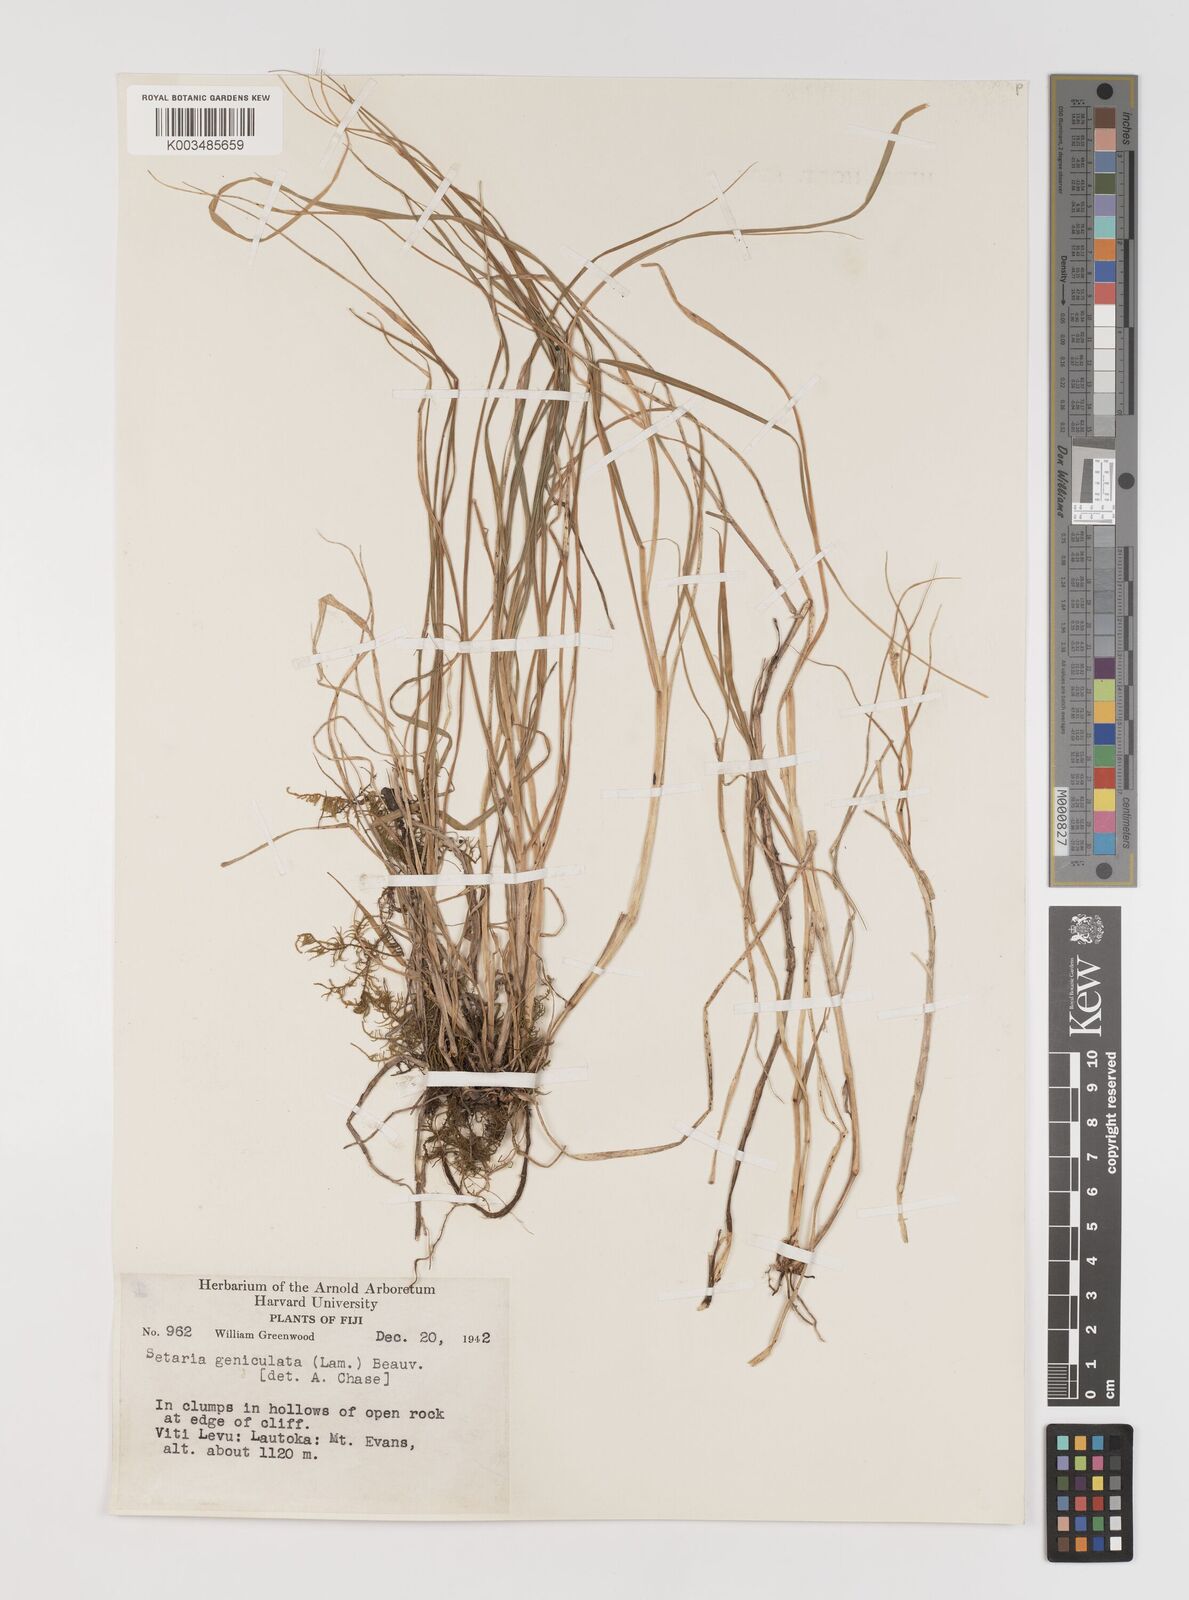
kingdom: Plantae
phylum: Tracheophyta
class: Liliopsida
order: Poales
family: Poaceae
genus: Setaria
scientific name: Setaria parviflora
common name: Knotroot bristle-grass
